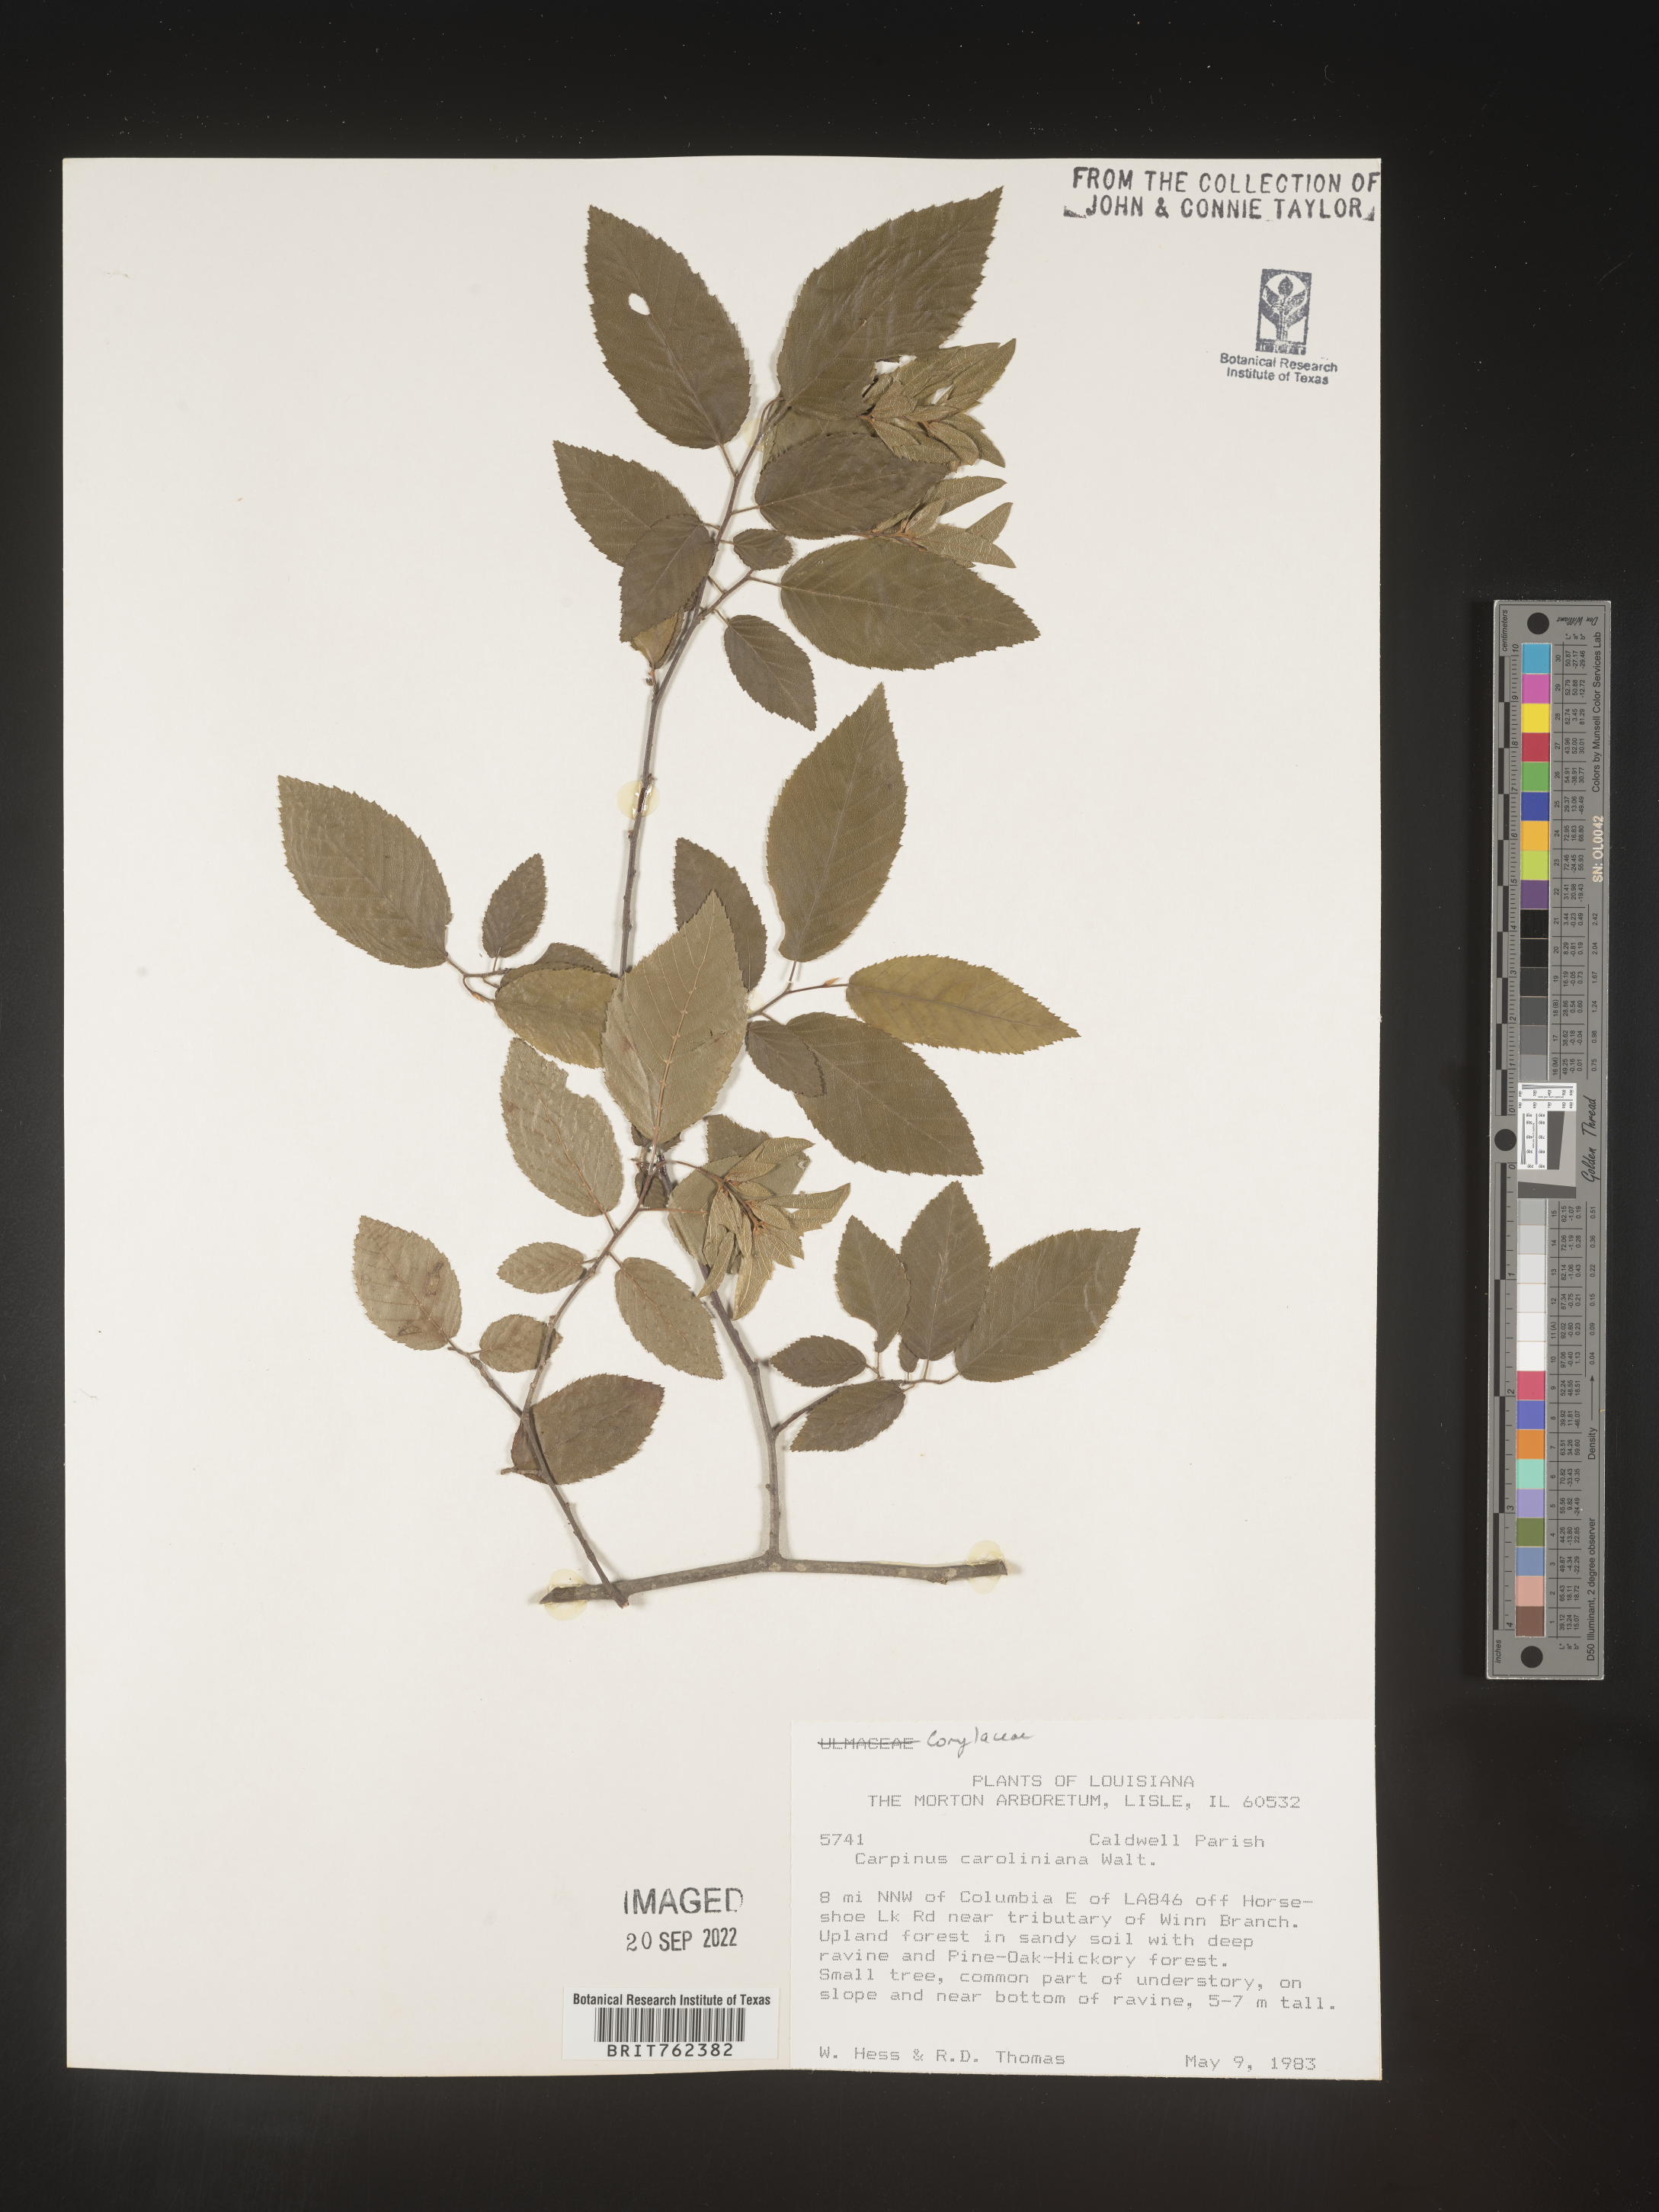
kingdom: Plantae
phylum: Tracheophyta
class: Magnoliopsida
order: Fagales
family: Betulaceae
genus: Carpinus
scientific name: Carpinus caroliniana
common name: American hornbeam
